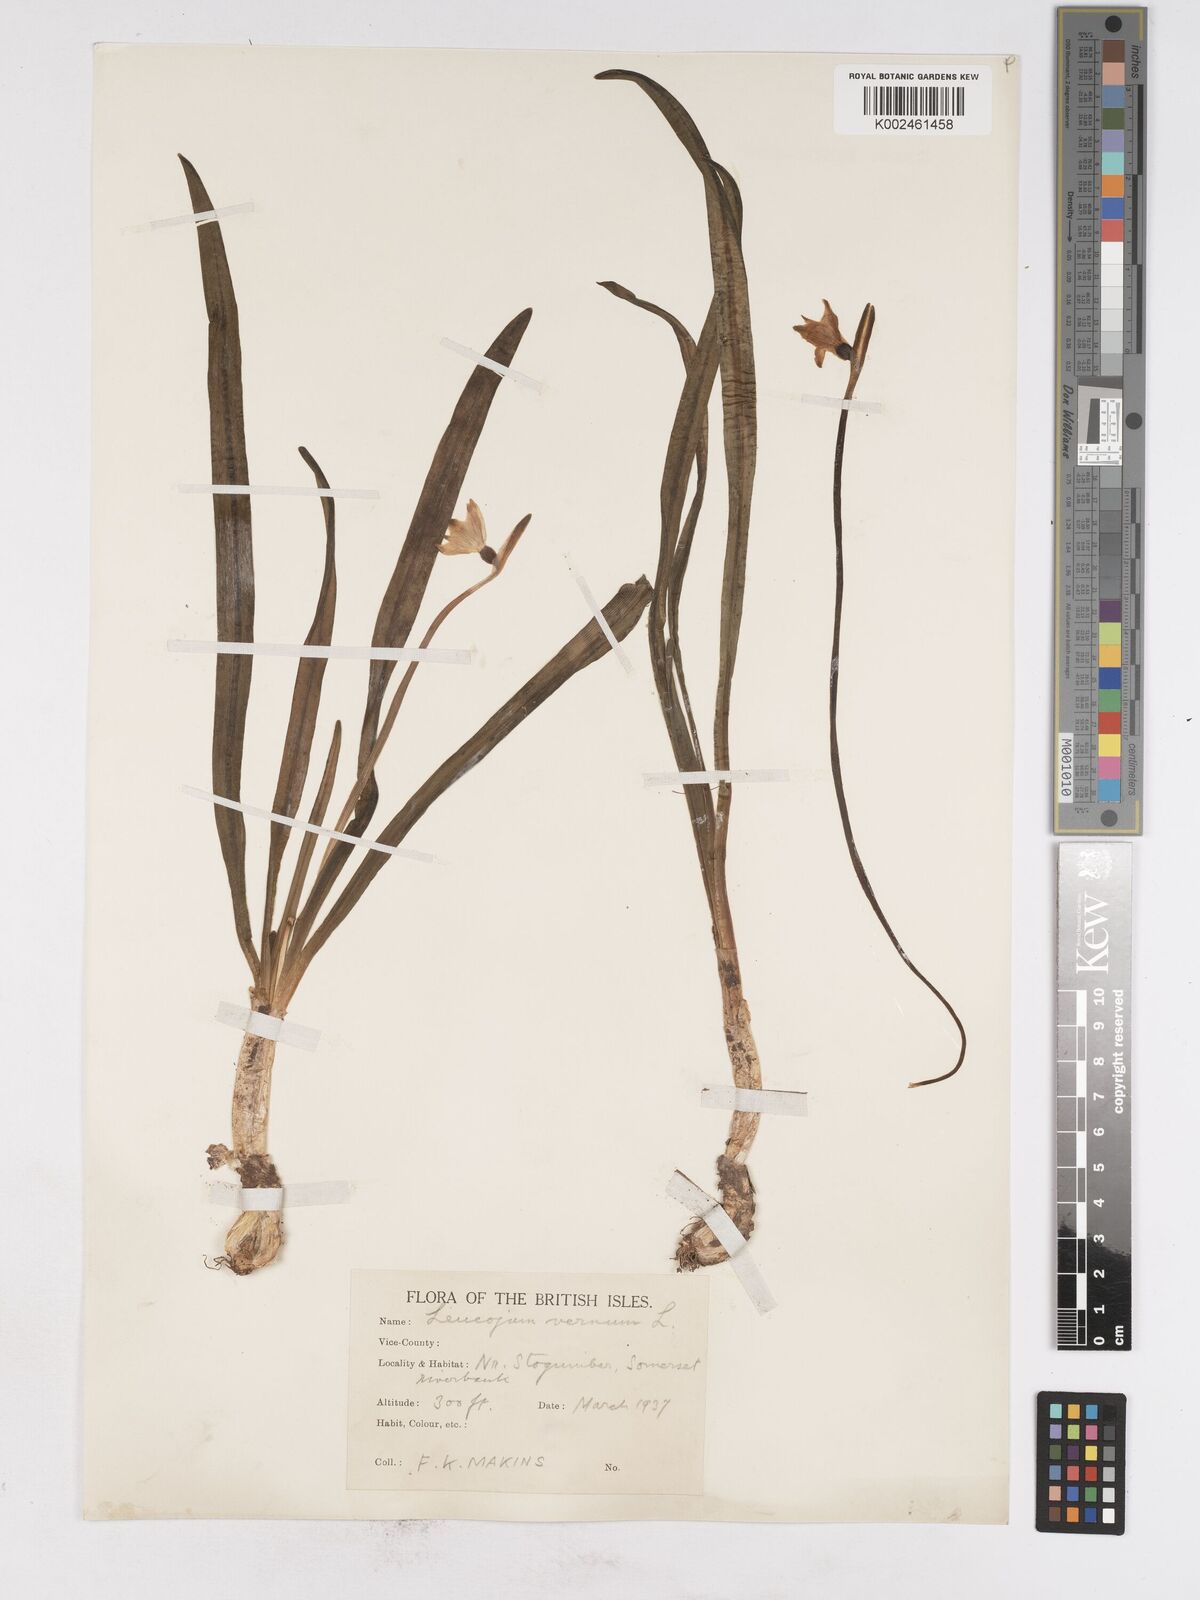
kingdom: Plantae
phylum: Tracheophyta
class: Liliopsida
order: Asparagales
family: Amaryllidaceae
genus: Leucojum
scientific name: Leucojum vernum
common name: Spring snowflake
